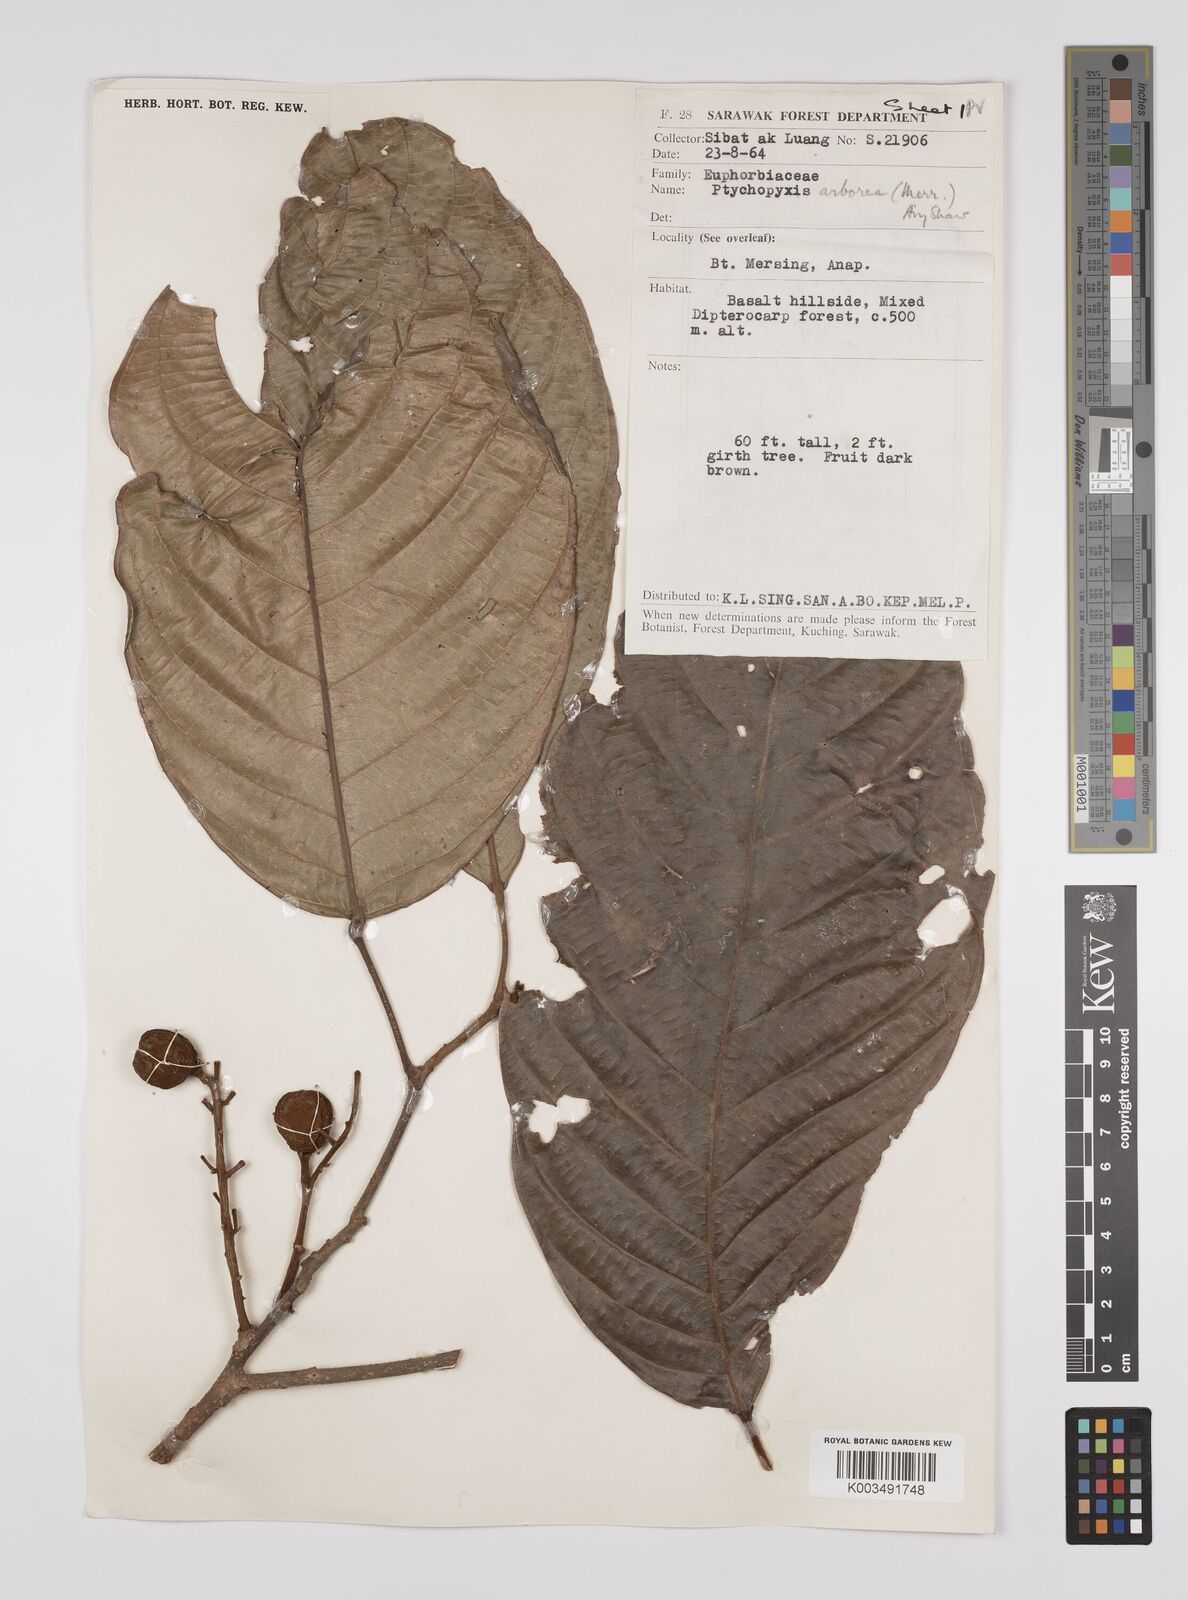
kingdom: Plantae
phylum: Tracheophyta
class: Magnoliopsida
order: Malpighiales
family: Euphorbiaceae
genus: Ptychopyxis
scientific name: Ptychopyxis arborea
